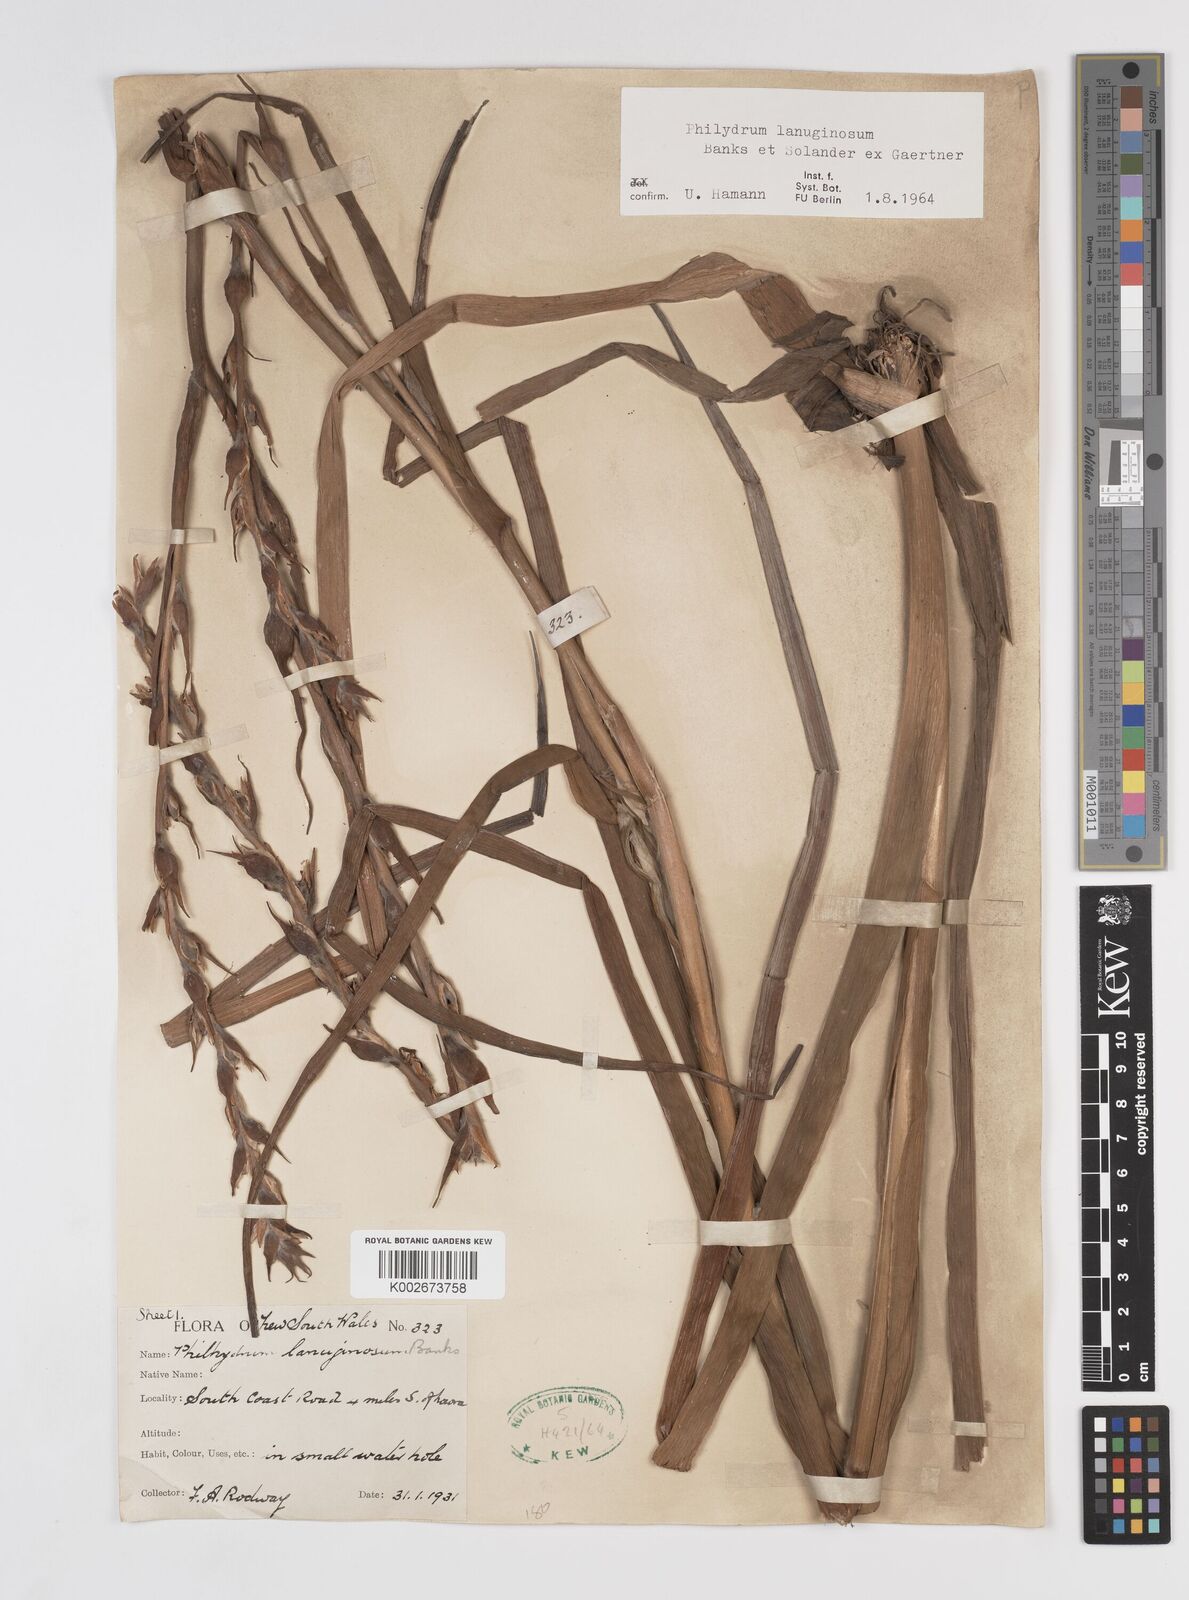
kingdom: Plantae
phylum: Tracheophyta
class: Liliopsida
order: Commelinales
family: Philydraceae
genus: Philydrum
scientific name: Philydrum lanuginosum
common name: Woolly frog's mouth
